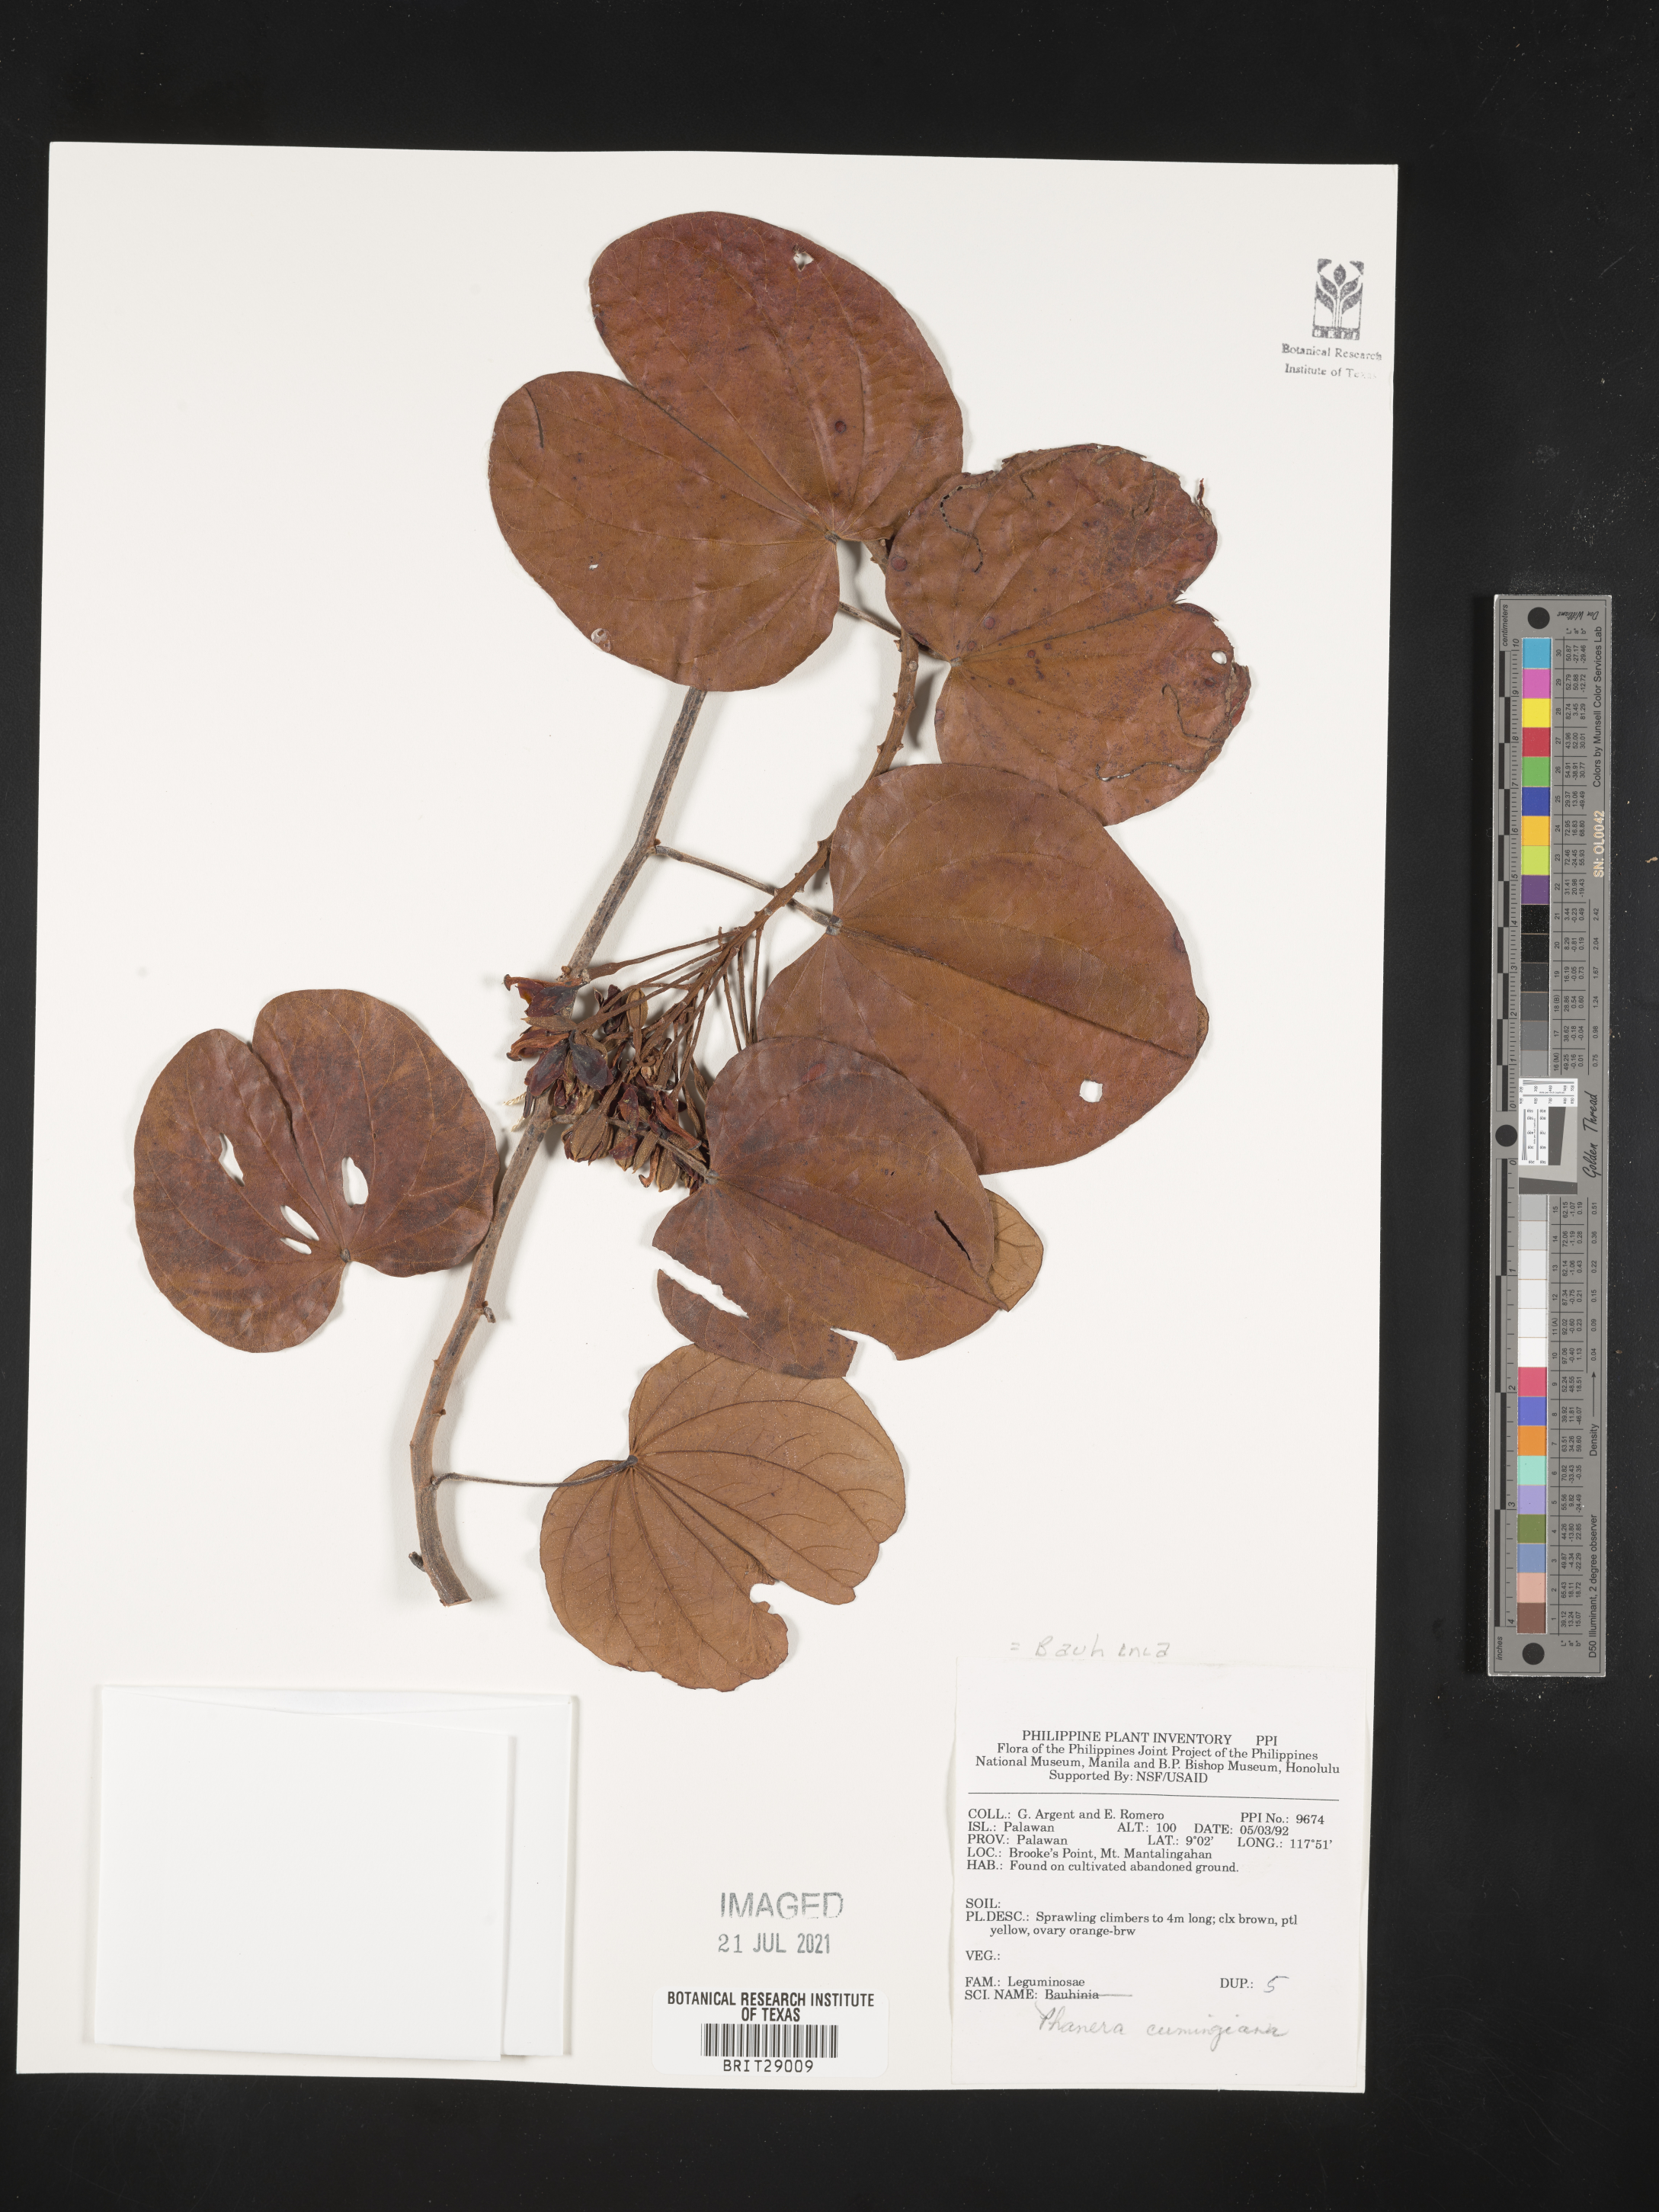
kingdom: Plantae
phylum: Tracheophyta
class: Magnoliopsida
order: Fabales
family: Fabaceae
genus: Phanera
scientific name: Phanera integrifolia
